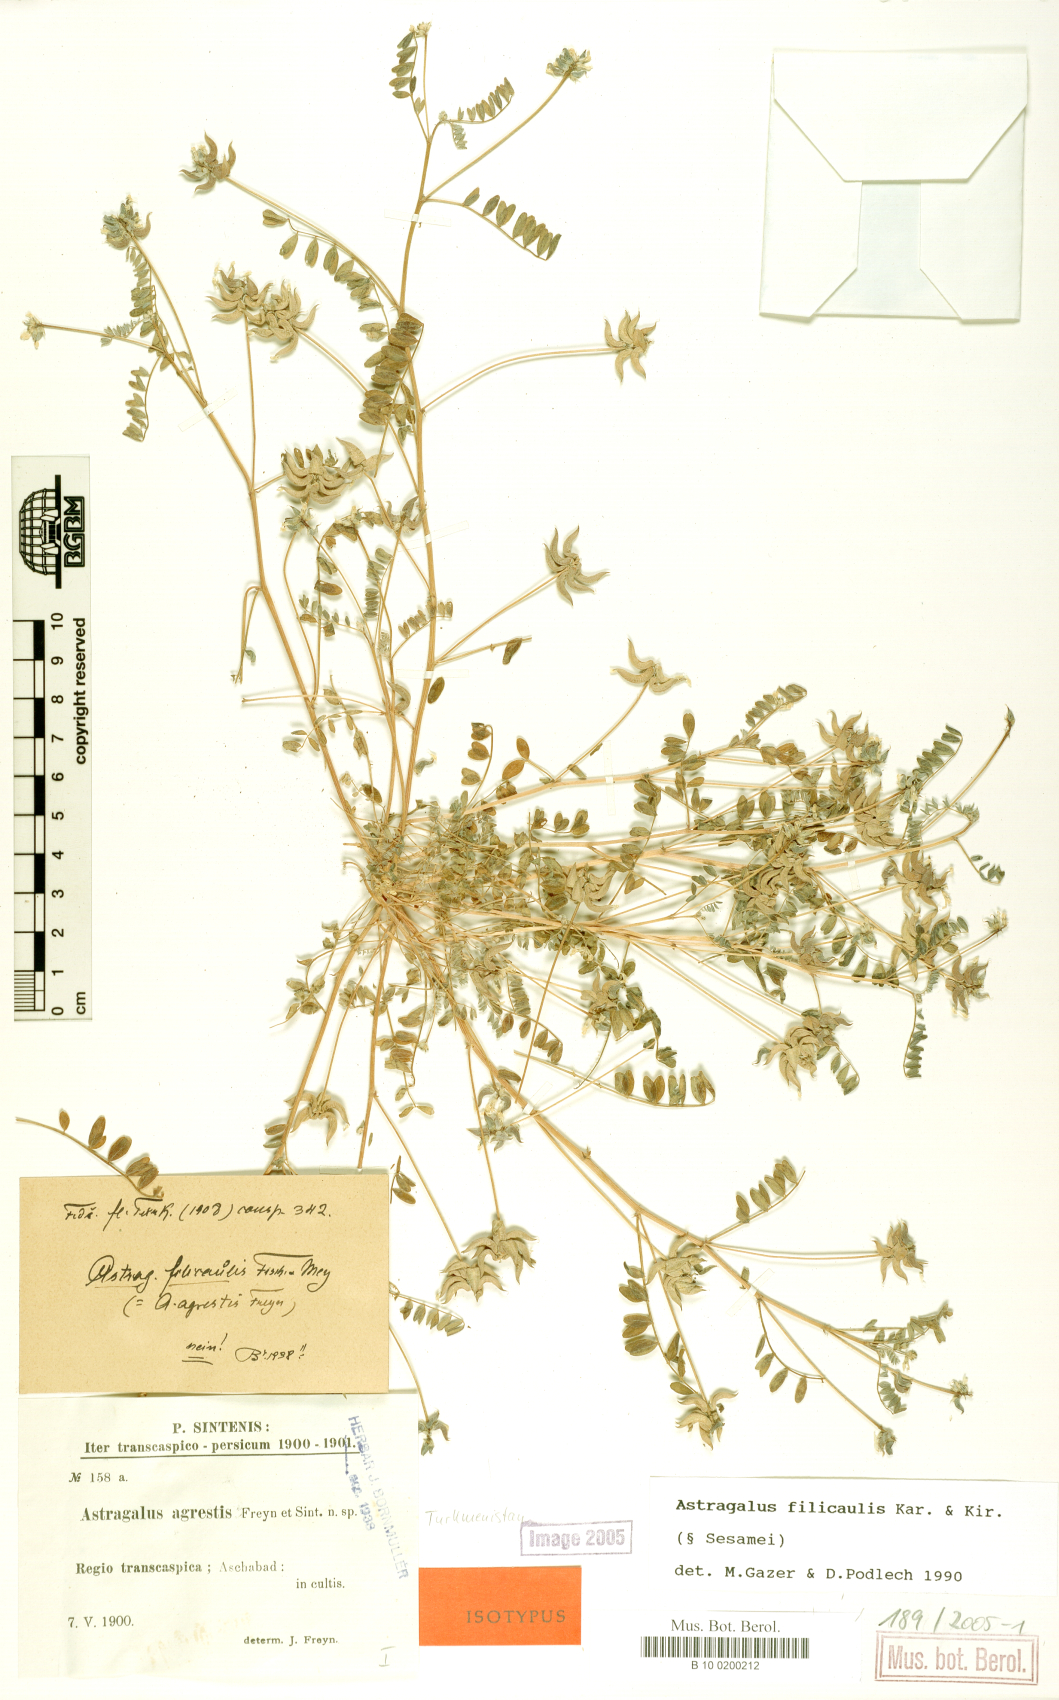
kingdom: Plantae
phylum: Tracheophyta
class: Magnoliopsida
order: Fabales
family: Fabaceae
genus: Astragalus
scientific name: Astragalus filicaulis
